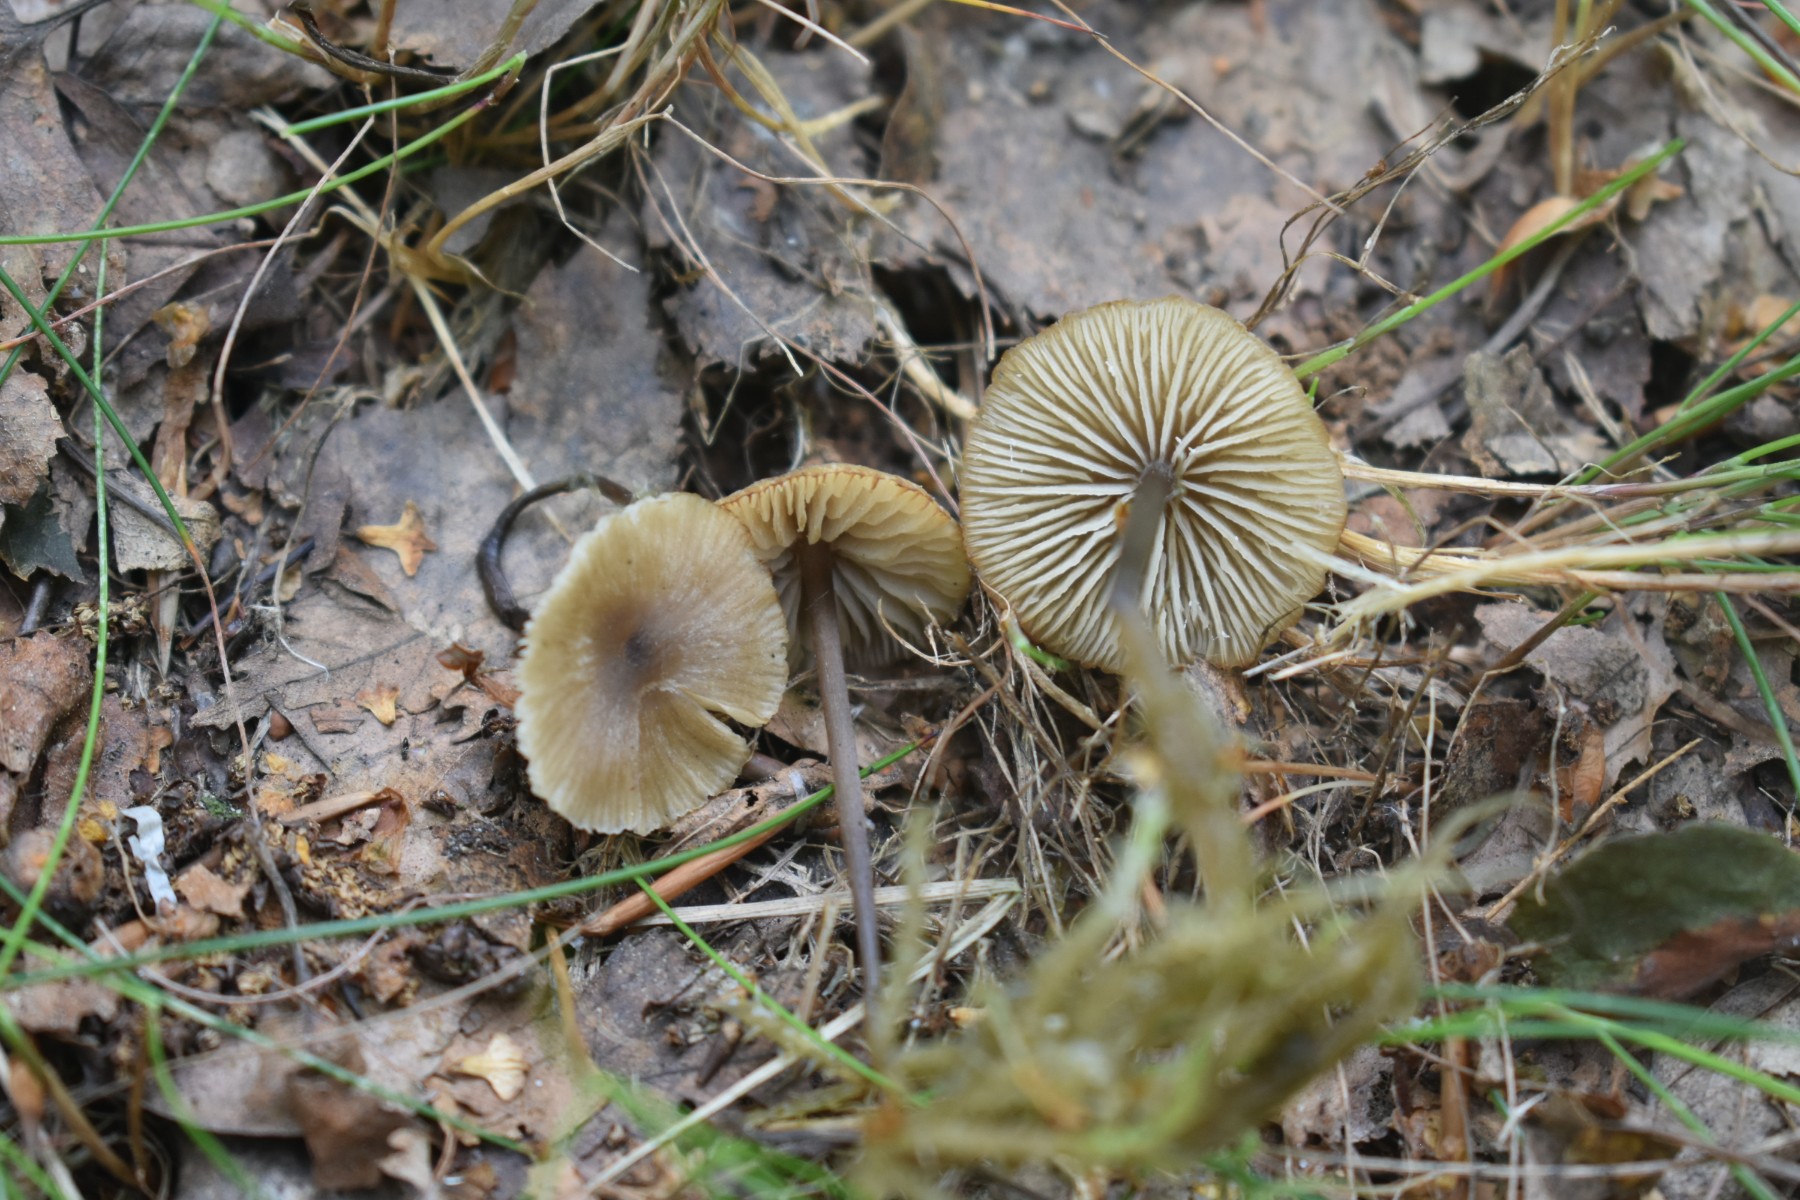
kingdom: Fungi
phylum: Basidiomycota
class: Agaricomycetes
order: Agaricales
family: Lyophyllaceae
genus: Sphagnurus
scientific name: Sphagnurus paluster
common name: tørvemos-gråblad
